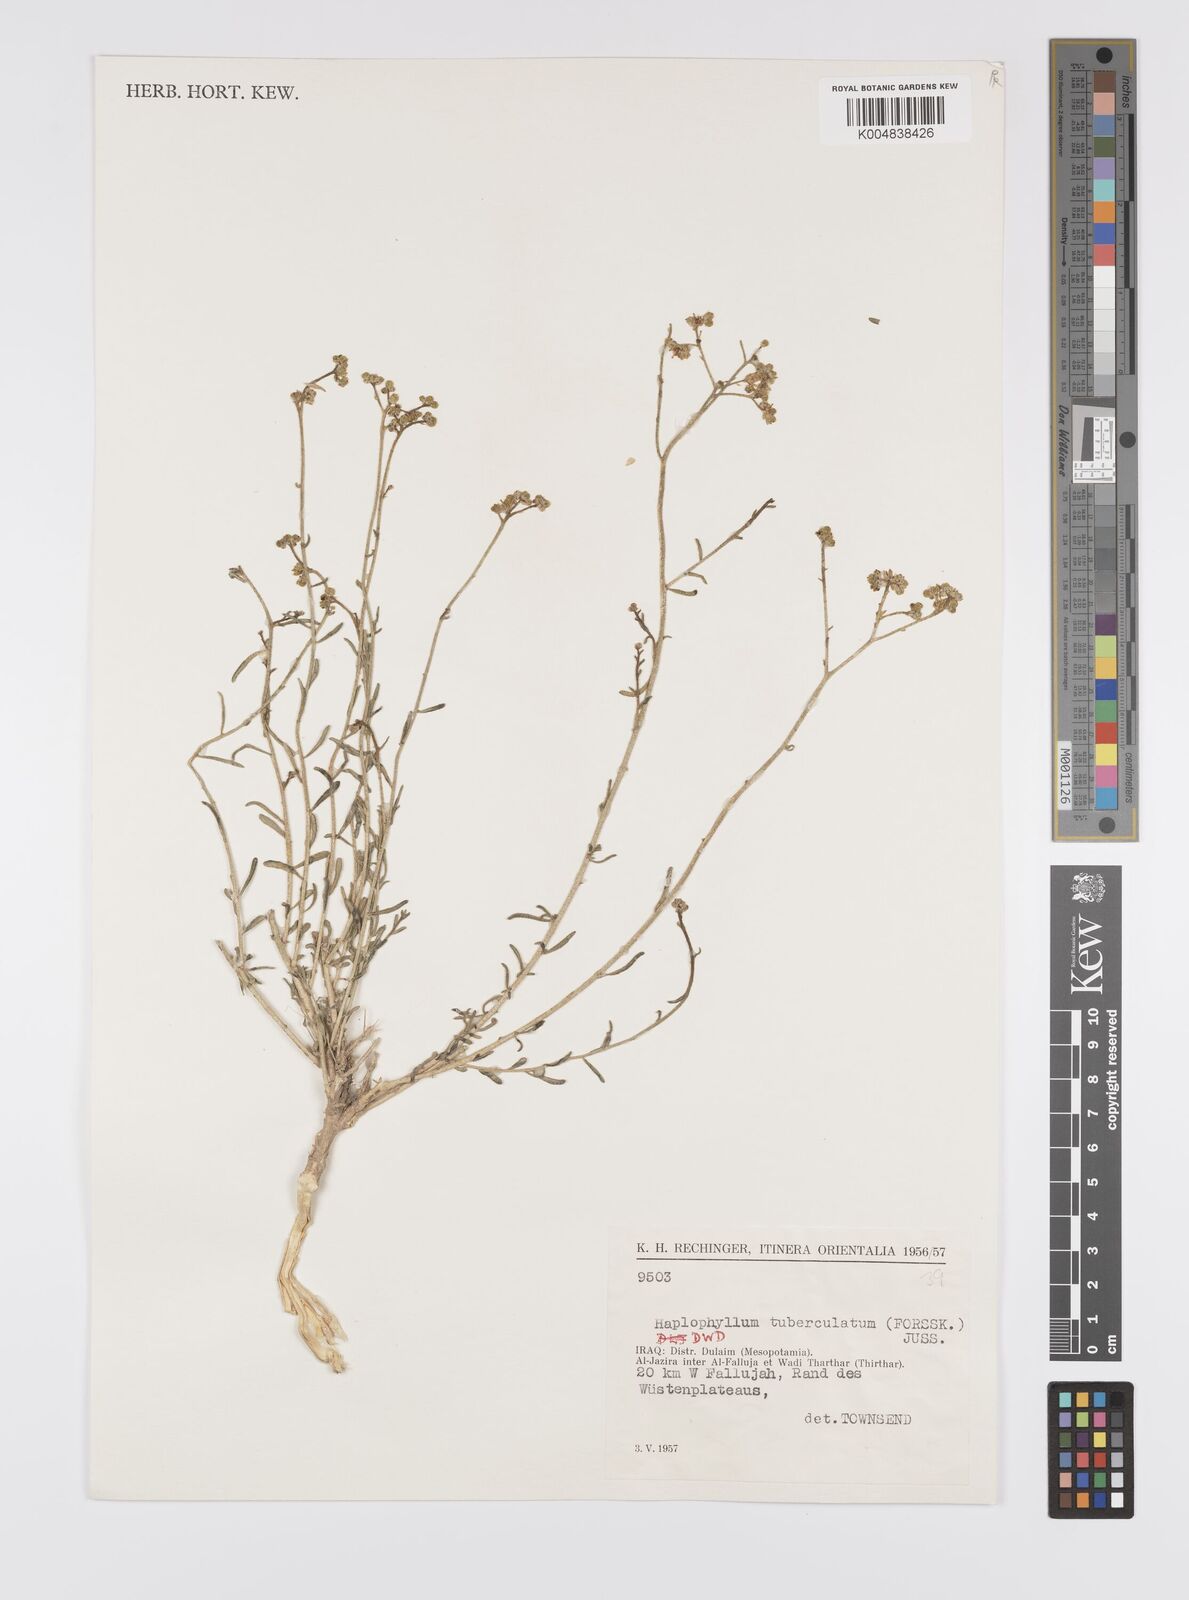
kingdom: Plantae
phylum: Tracheophyta
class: Magnoliopsida
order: Sapindales
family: Rutaceae
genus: Haplophyllum
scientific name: Haplophyllum tuberculatum
